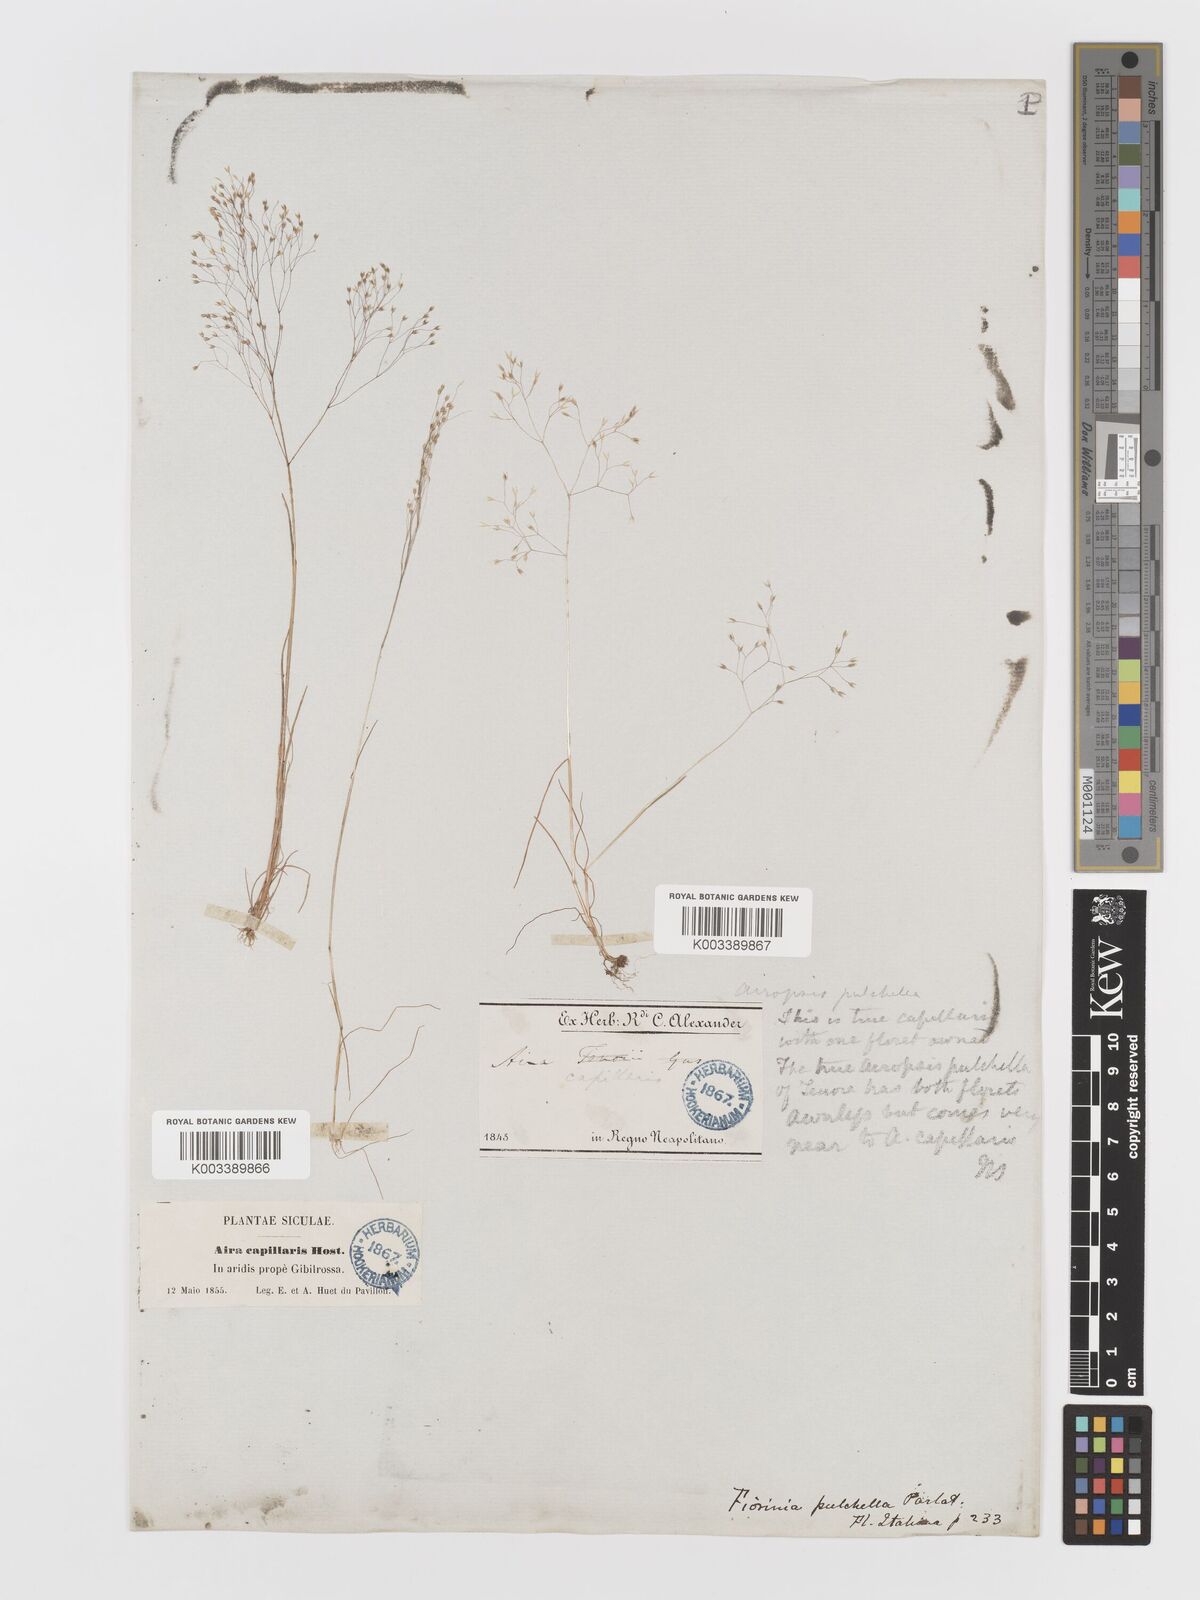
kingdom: Plantae
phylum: Tracheophyta
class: Liliopsida
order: Poales
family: Poaceae
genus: Aira
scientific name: Aira elegans
